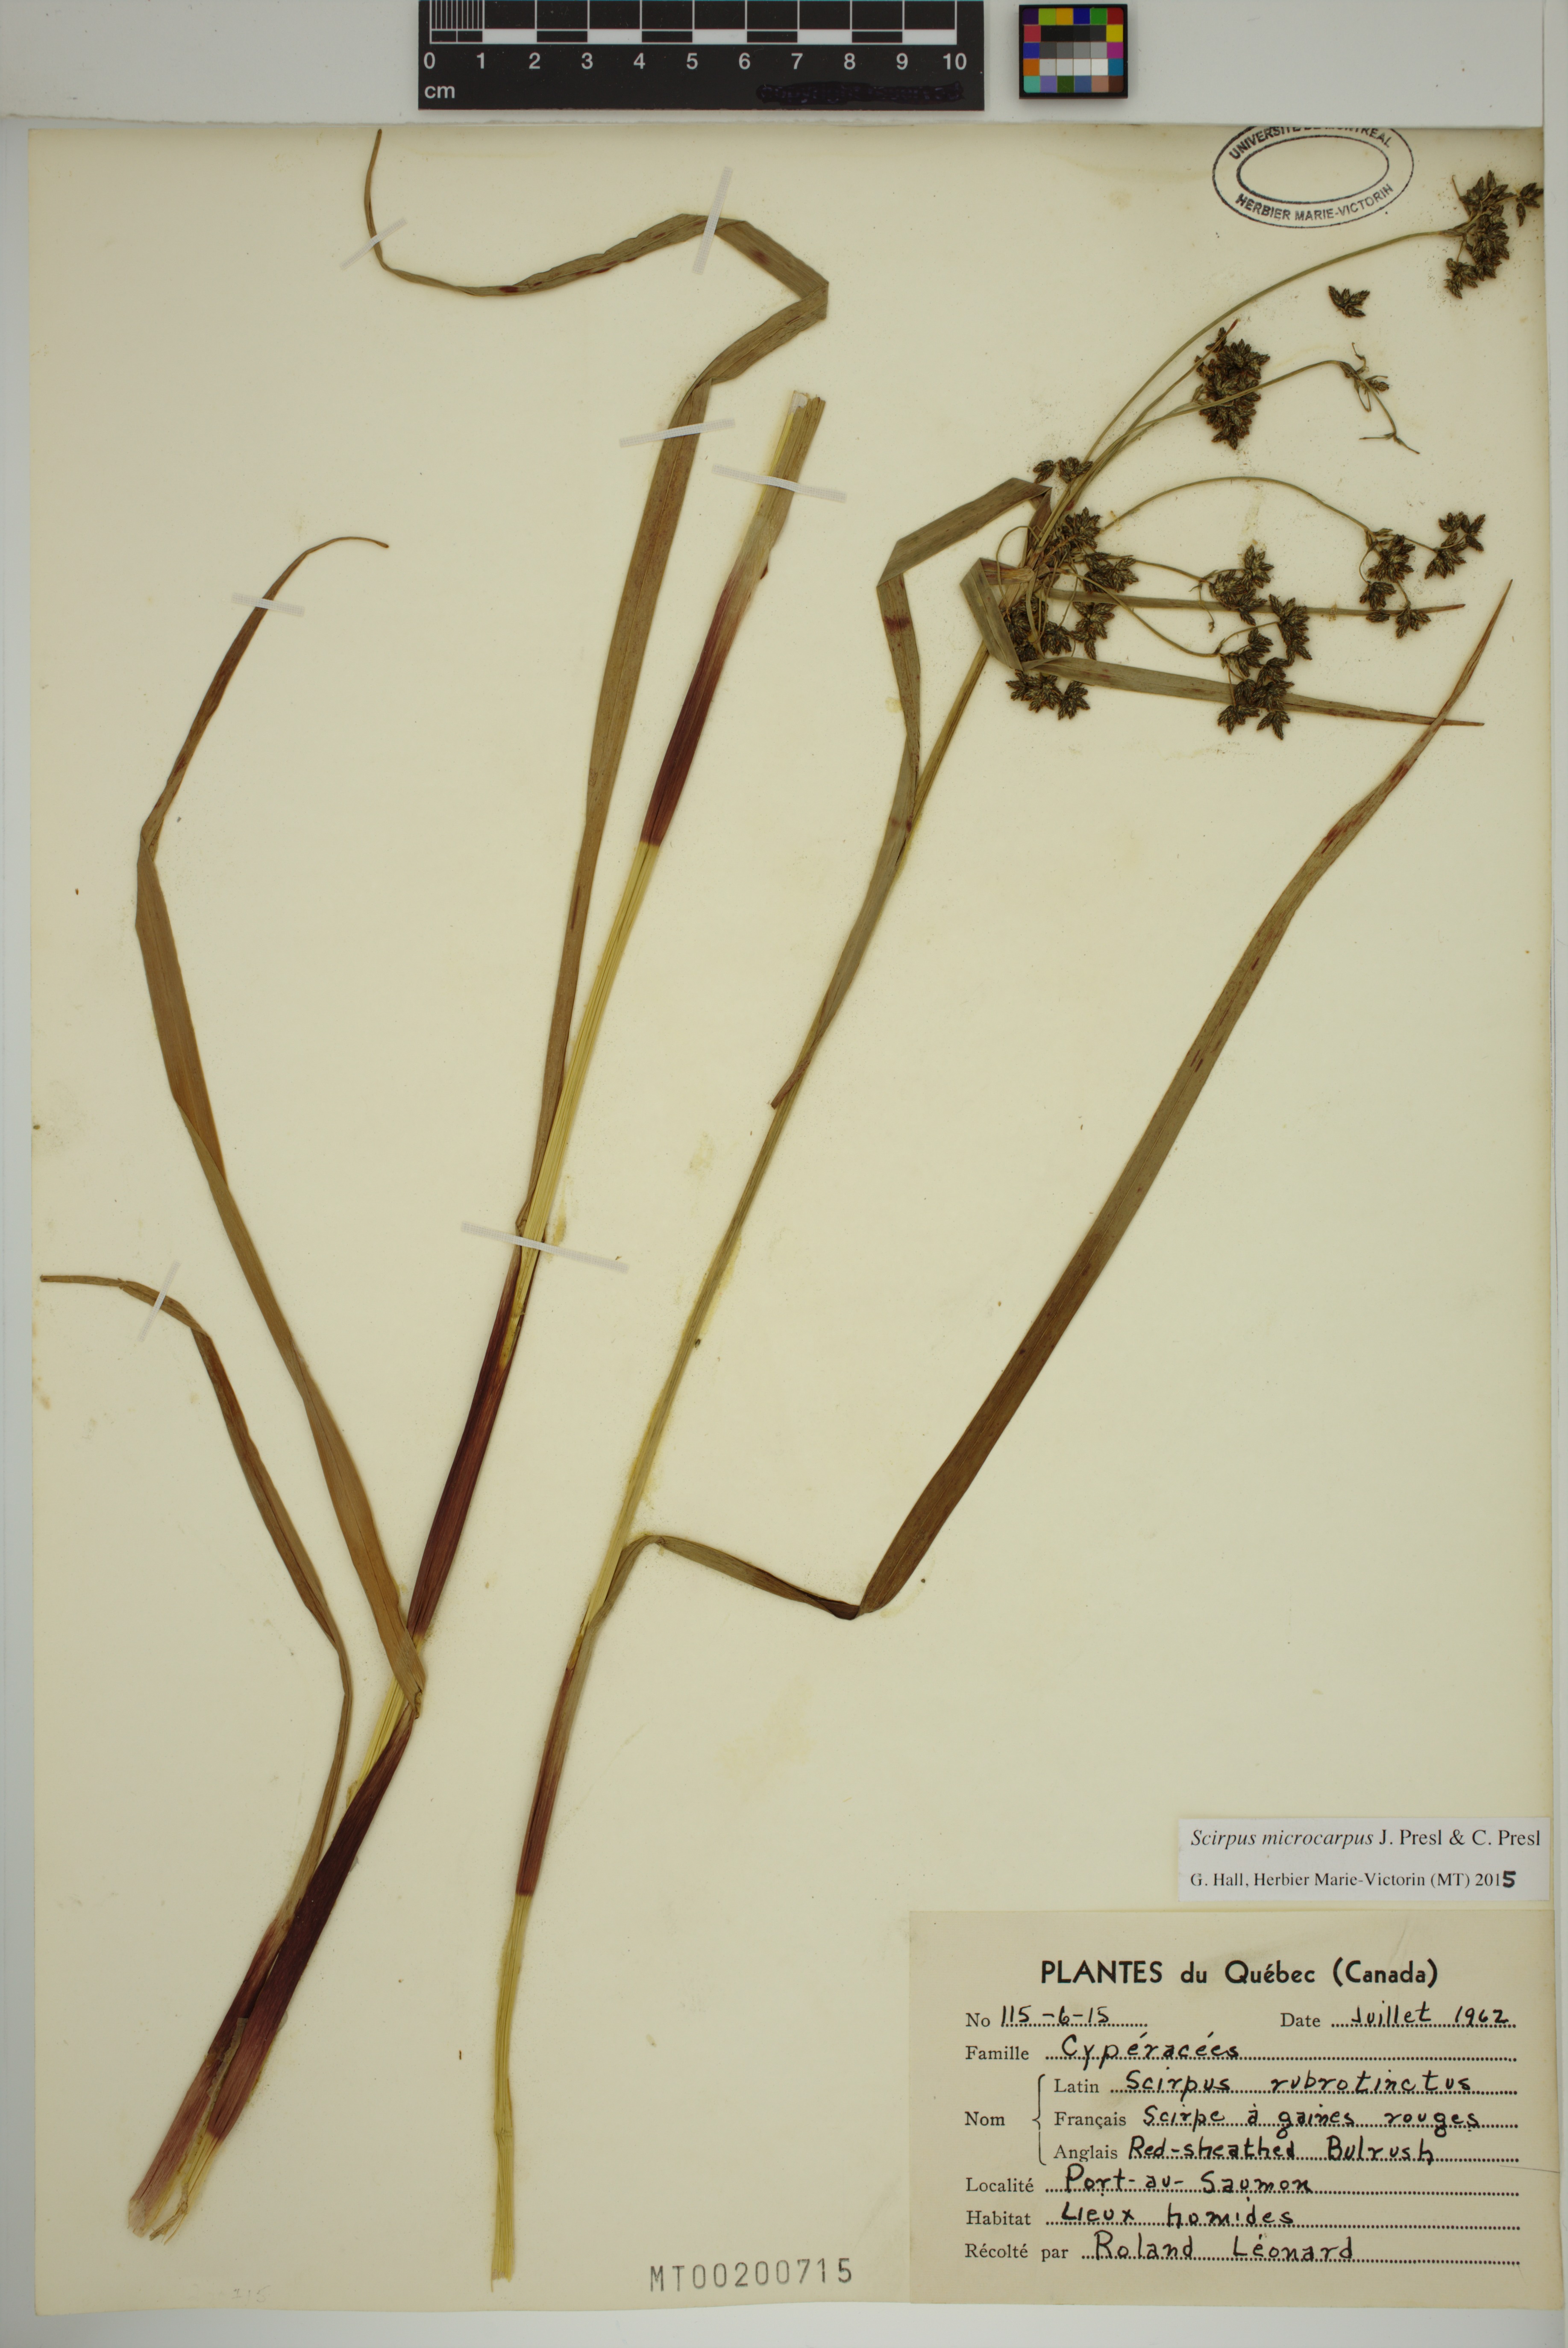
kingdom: Plantae
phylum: Tracheophyta
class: Liliopsida
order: Poales
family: Cyperaceae
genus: Scirpus
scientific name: Scirpus microcarpus
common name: Panicled bulrush
